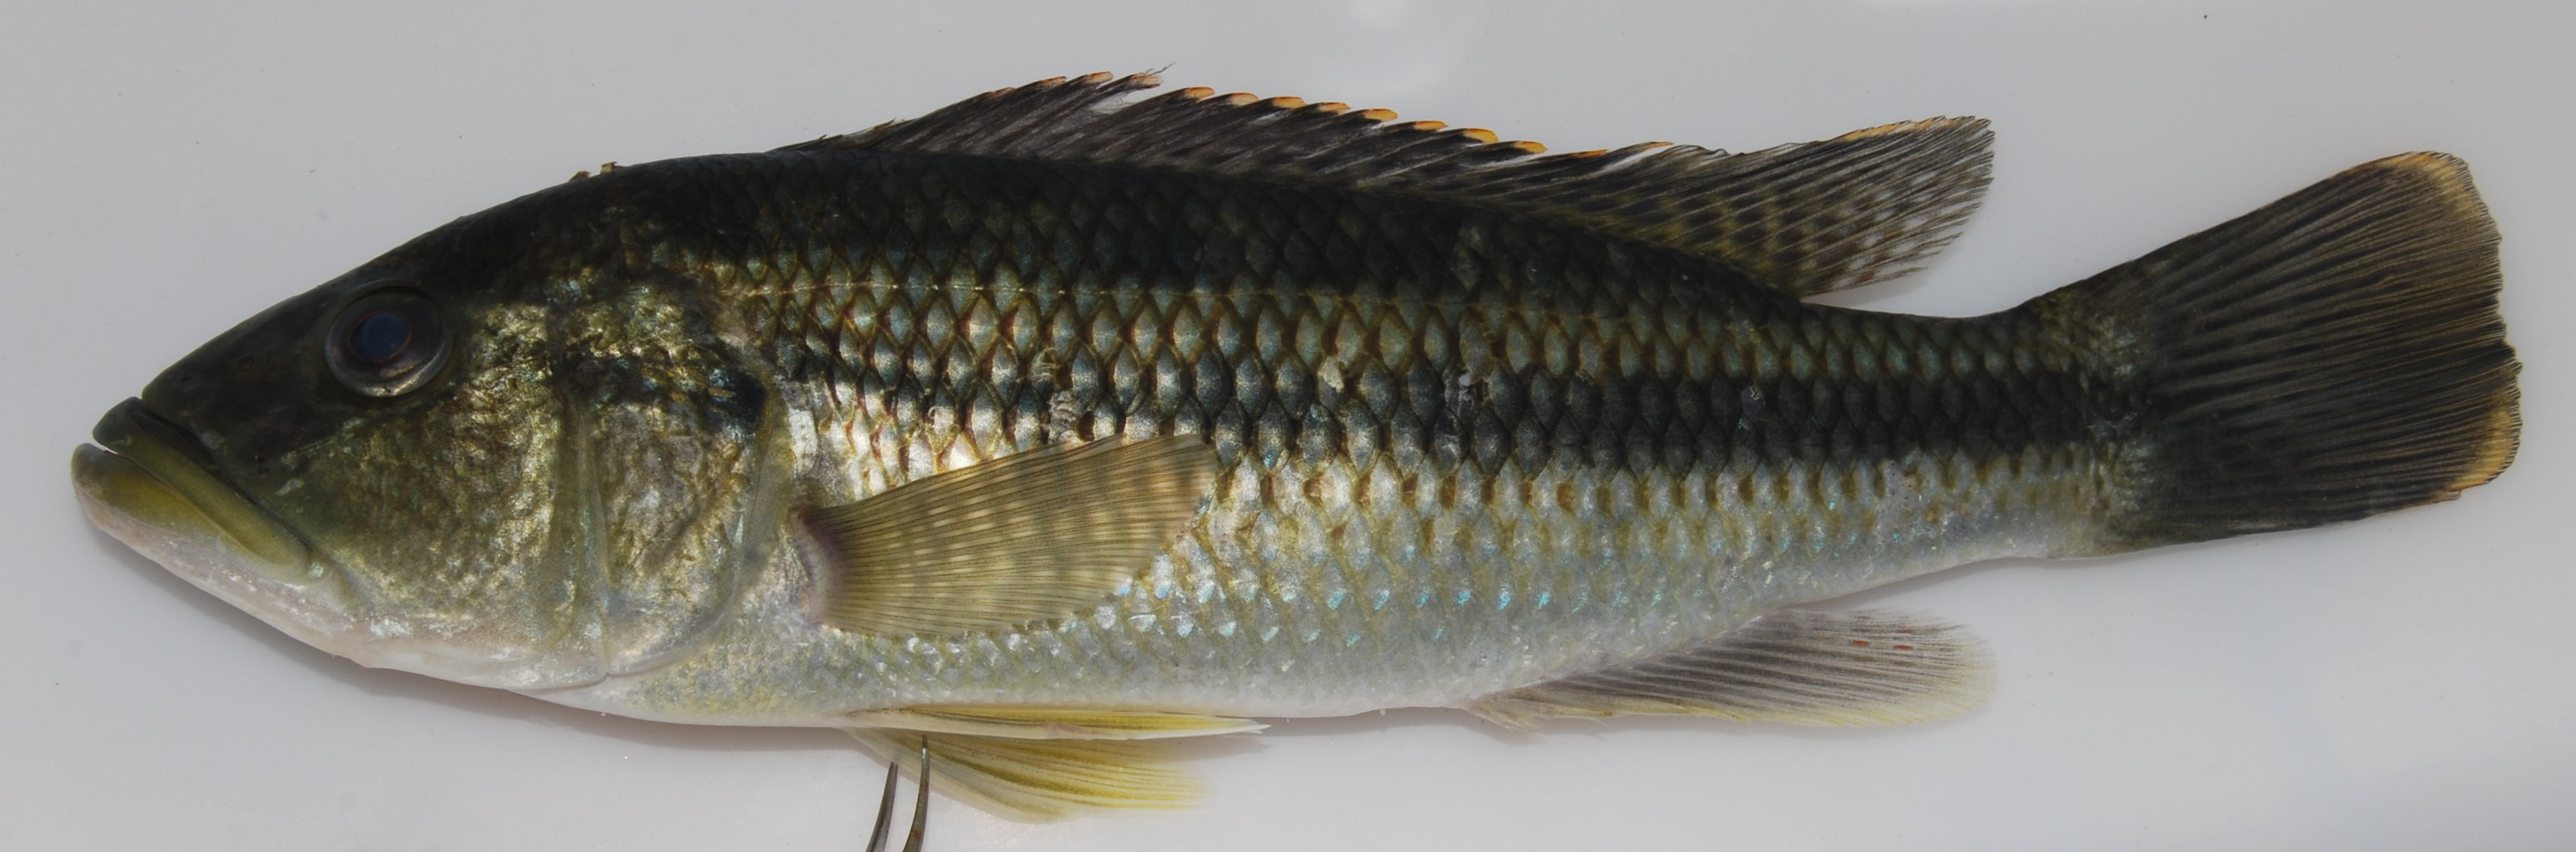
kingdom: Animalia
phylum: Chordata
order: Perciformes
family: Cichlidae
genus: Serranochromis
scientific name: Serranochromis thumbergi
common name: Brownspot largemouth
